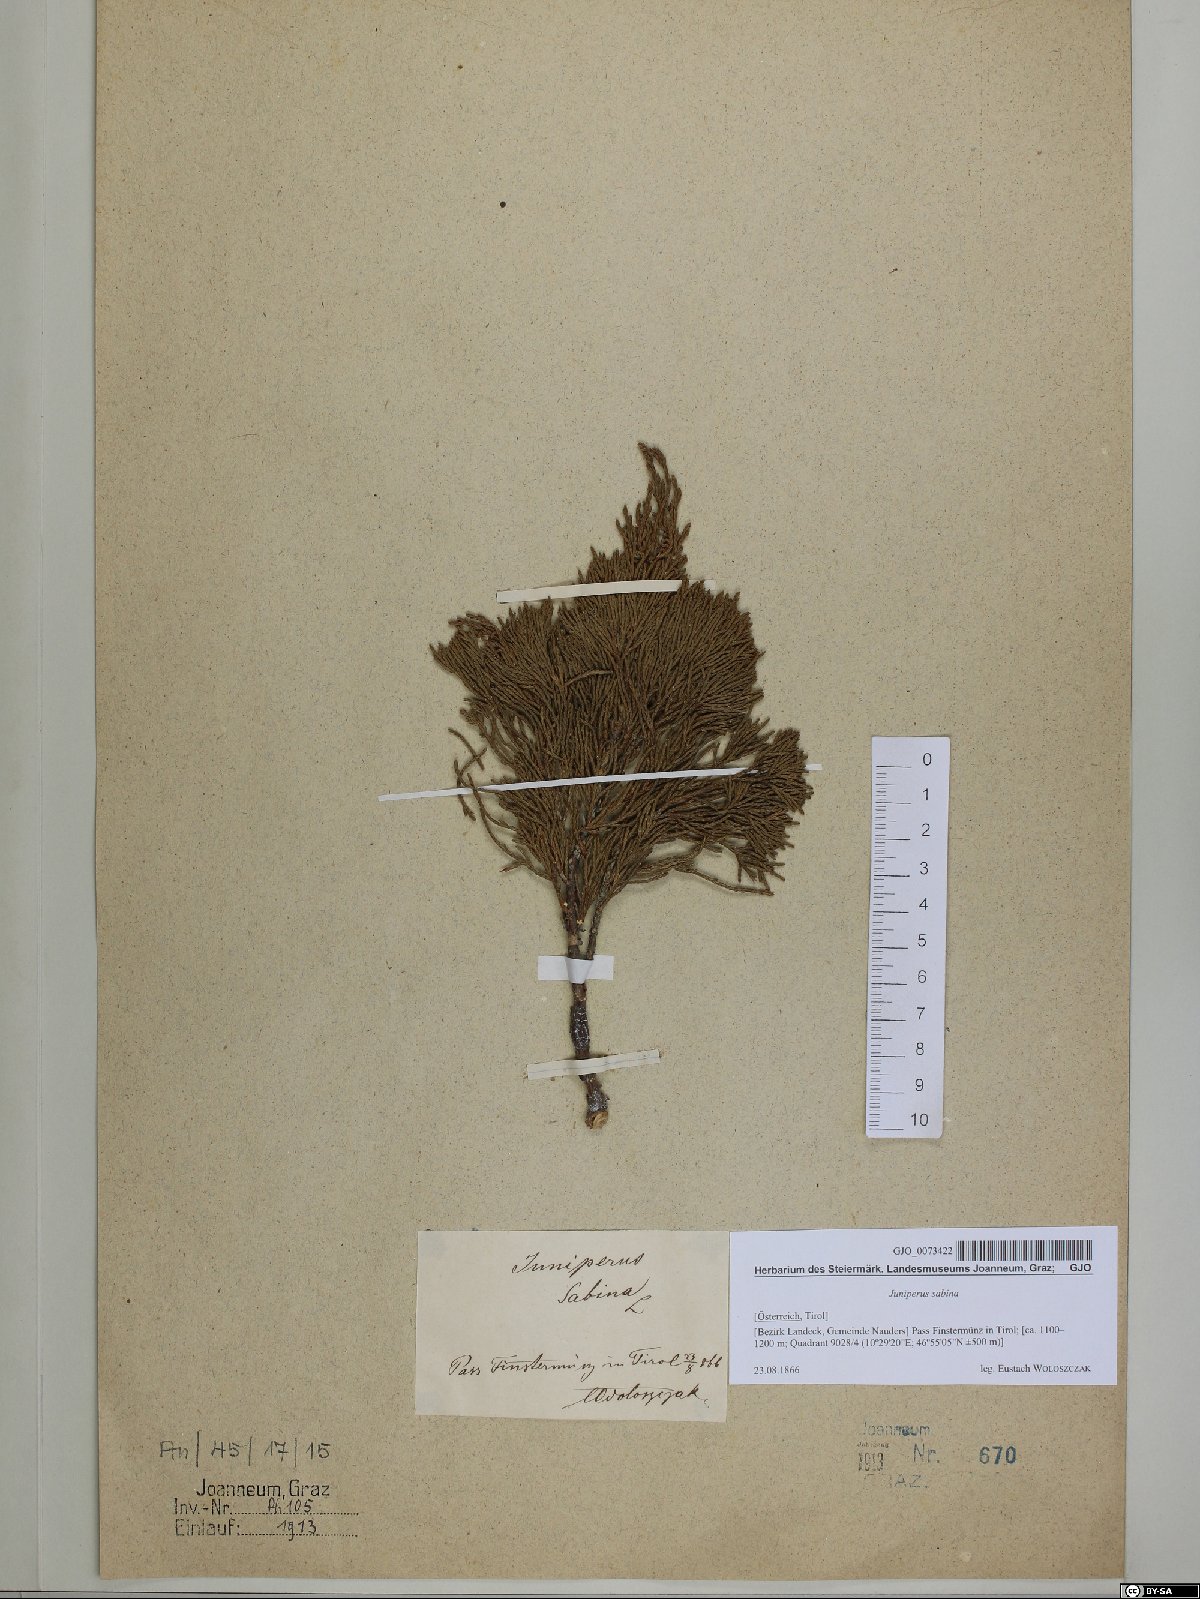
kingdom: Plantae
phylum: Tracheophyta
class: Pinopsida
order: Pinales
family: Cupressaceae
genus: Juniperus
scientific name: Juniperus sabina
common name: Savin
